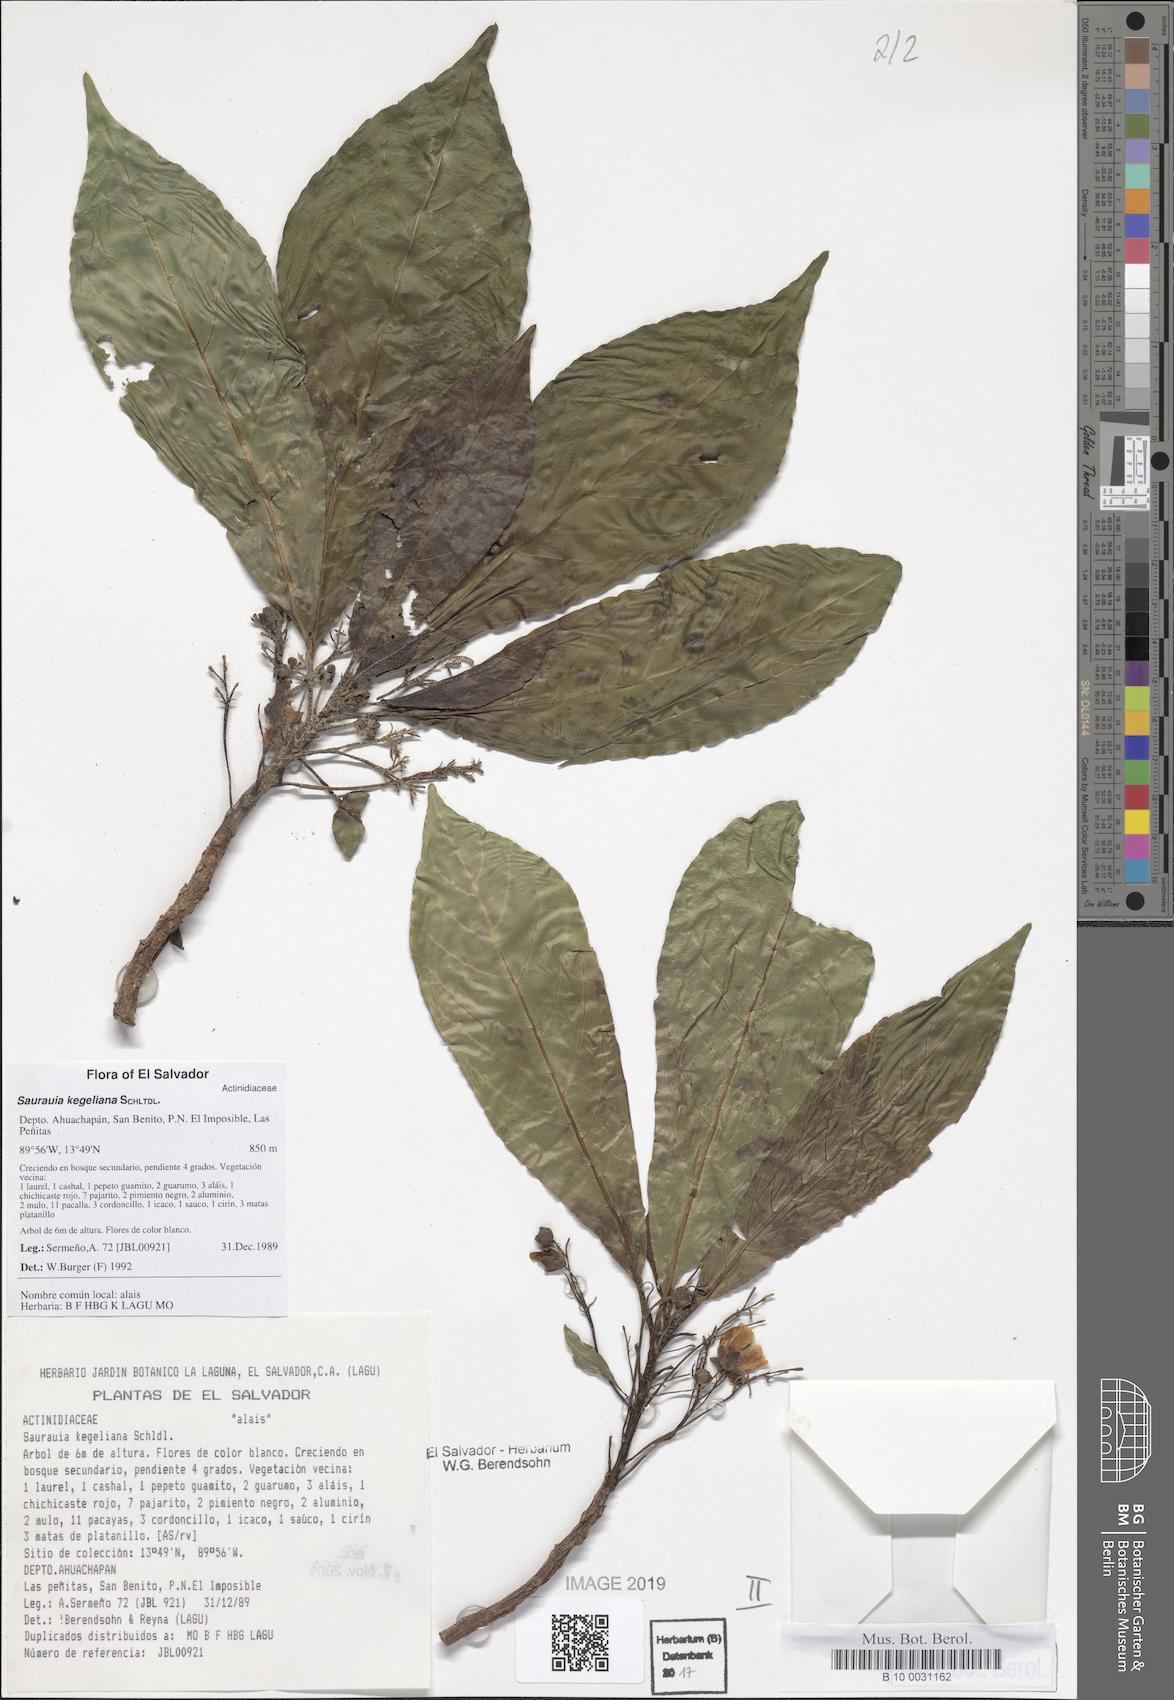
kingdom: Plantae
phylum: Tracheophyta
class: Magnoliopsida
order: Ericales
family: Actinidiaceae
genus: Saurauia
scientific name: Saurauia kegeliana
